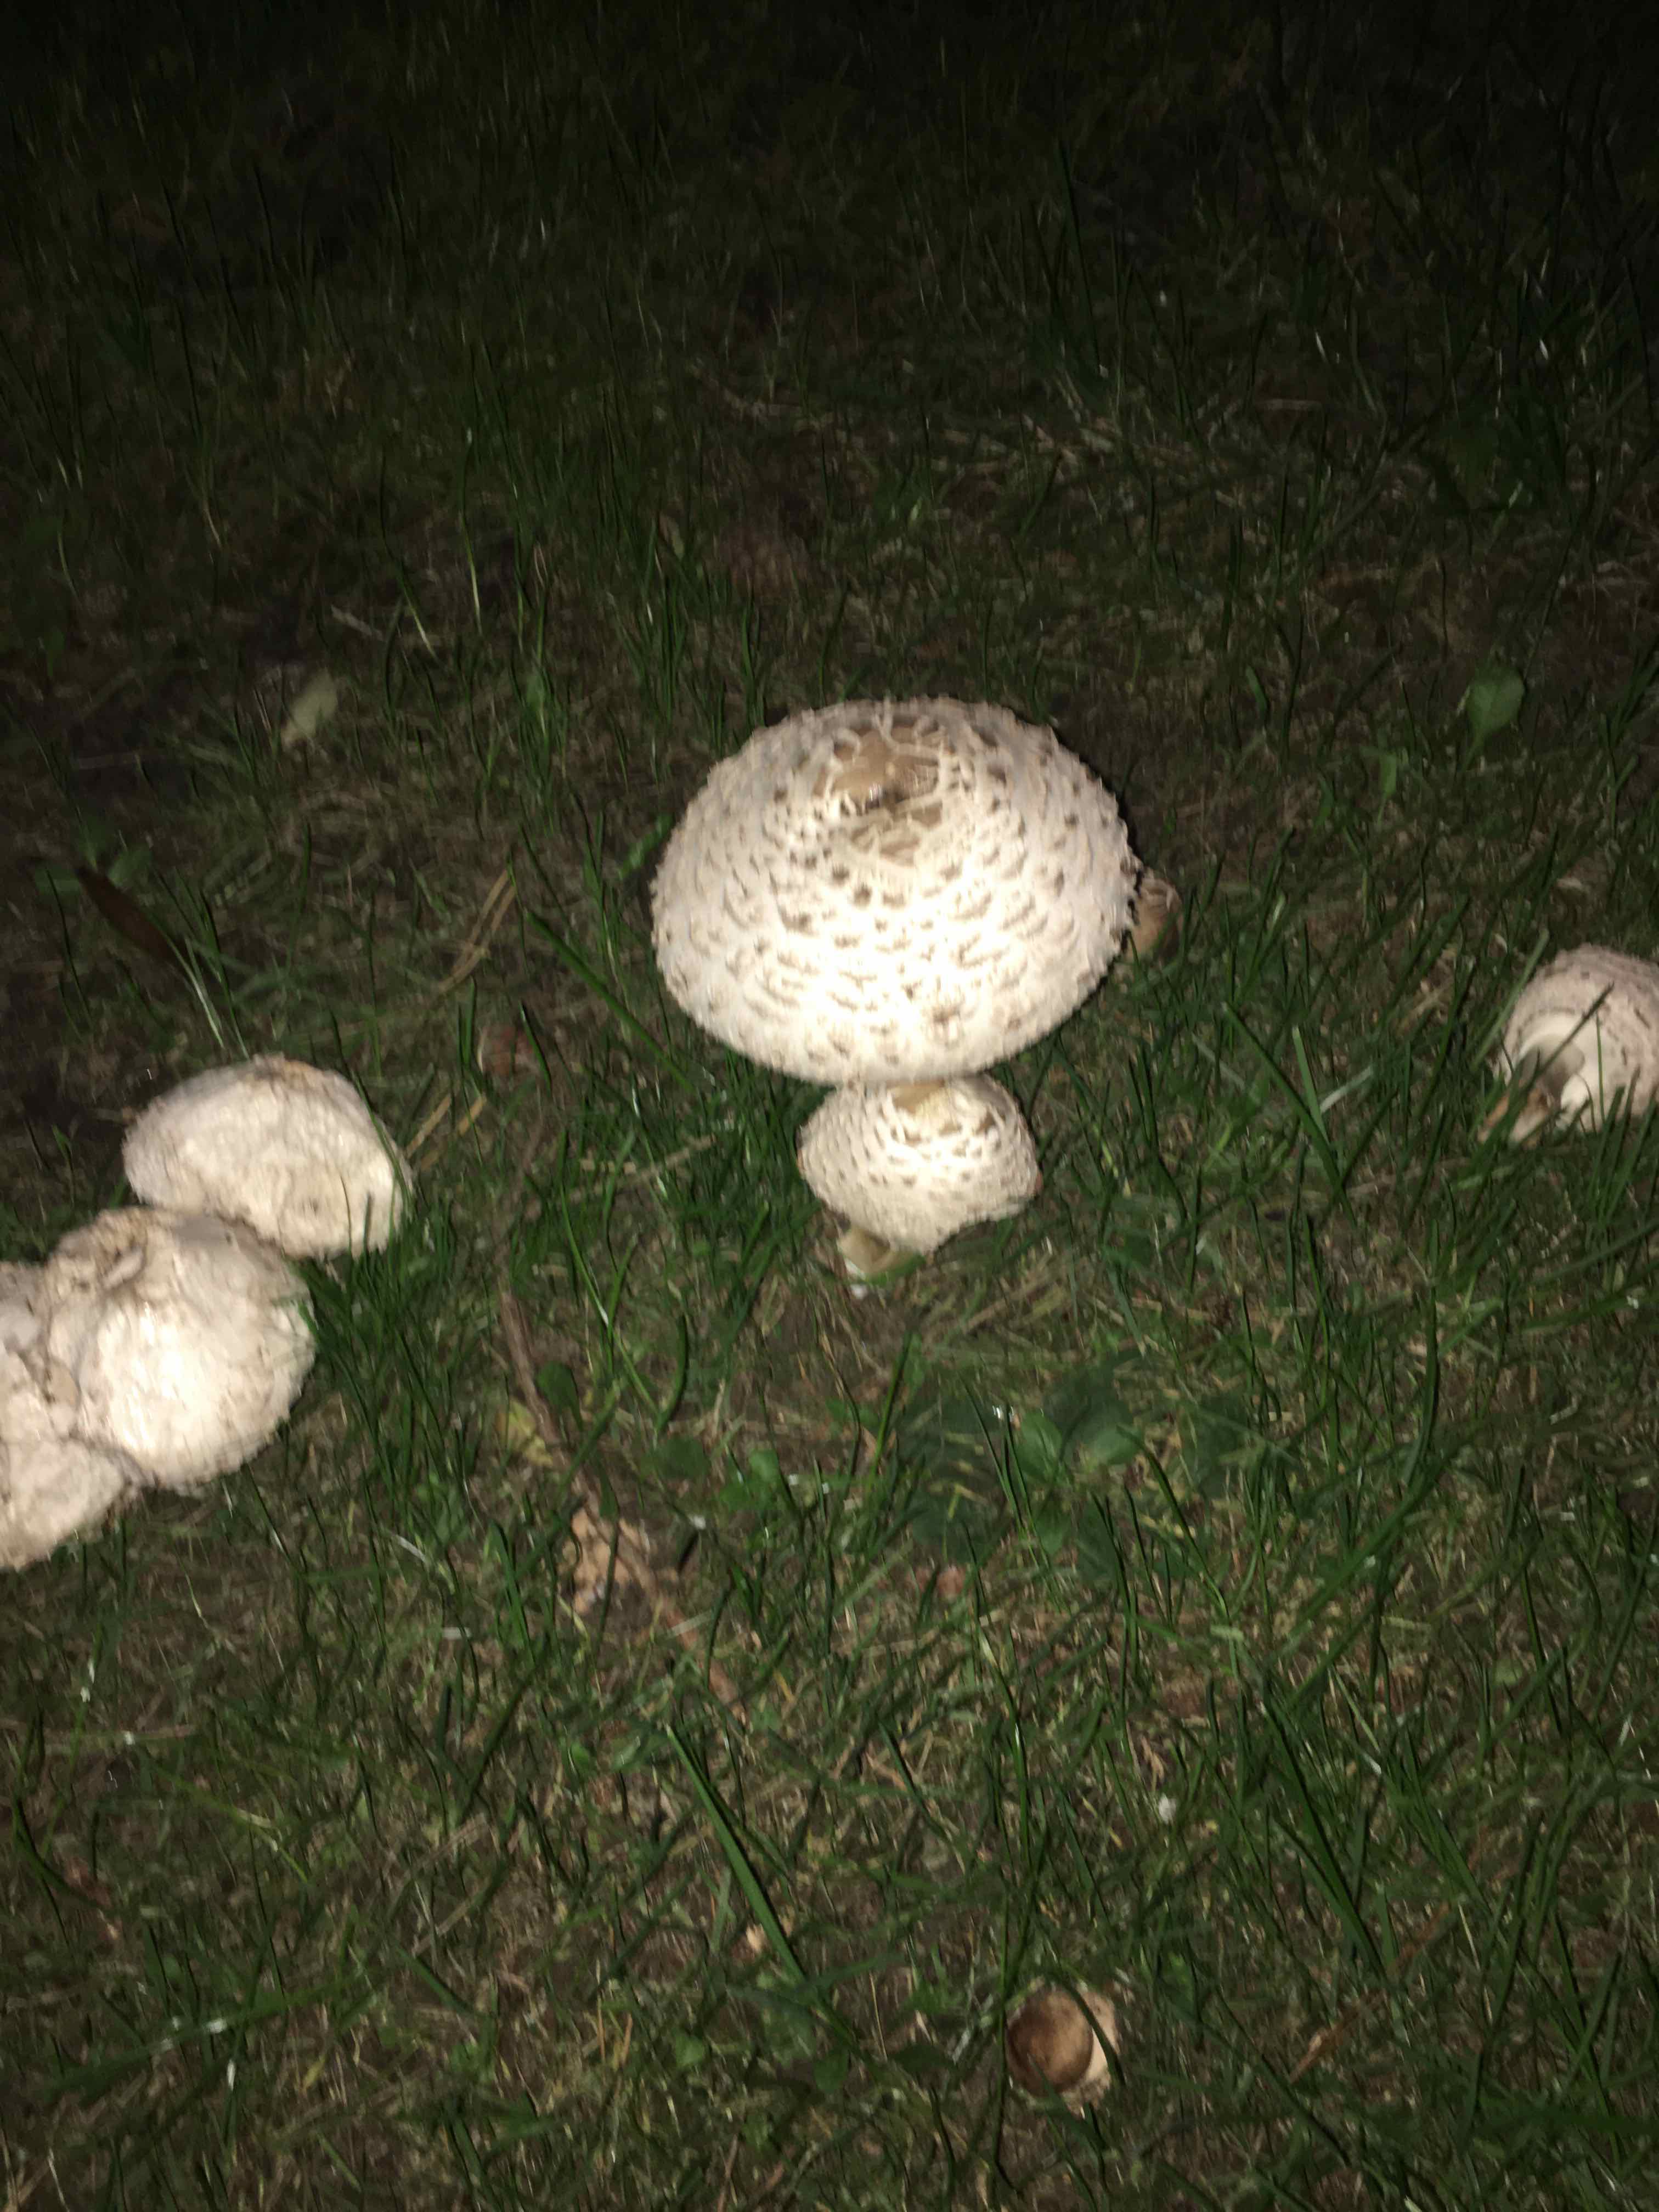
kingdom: Fungi
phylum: Basidiomycota
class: Agaricomycetes
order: Agaricales
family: Agaricaceae
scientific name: Agaricaceae
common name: champignonfamilien
